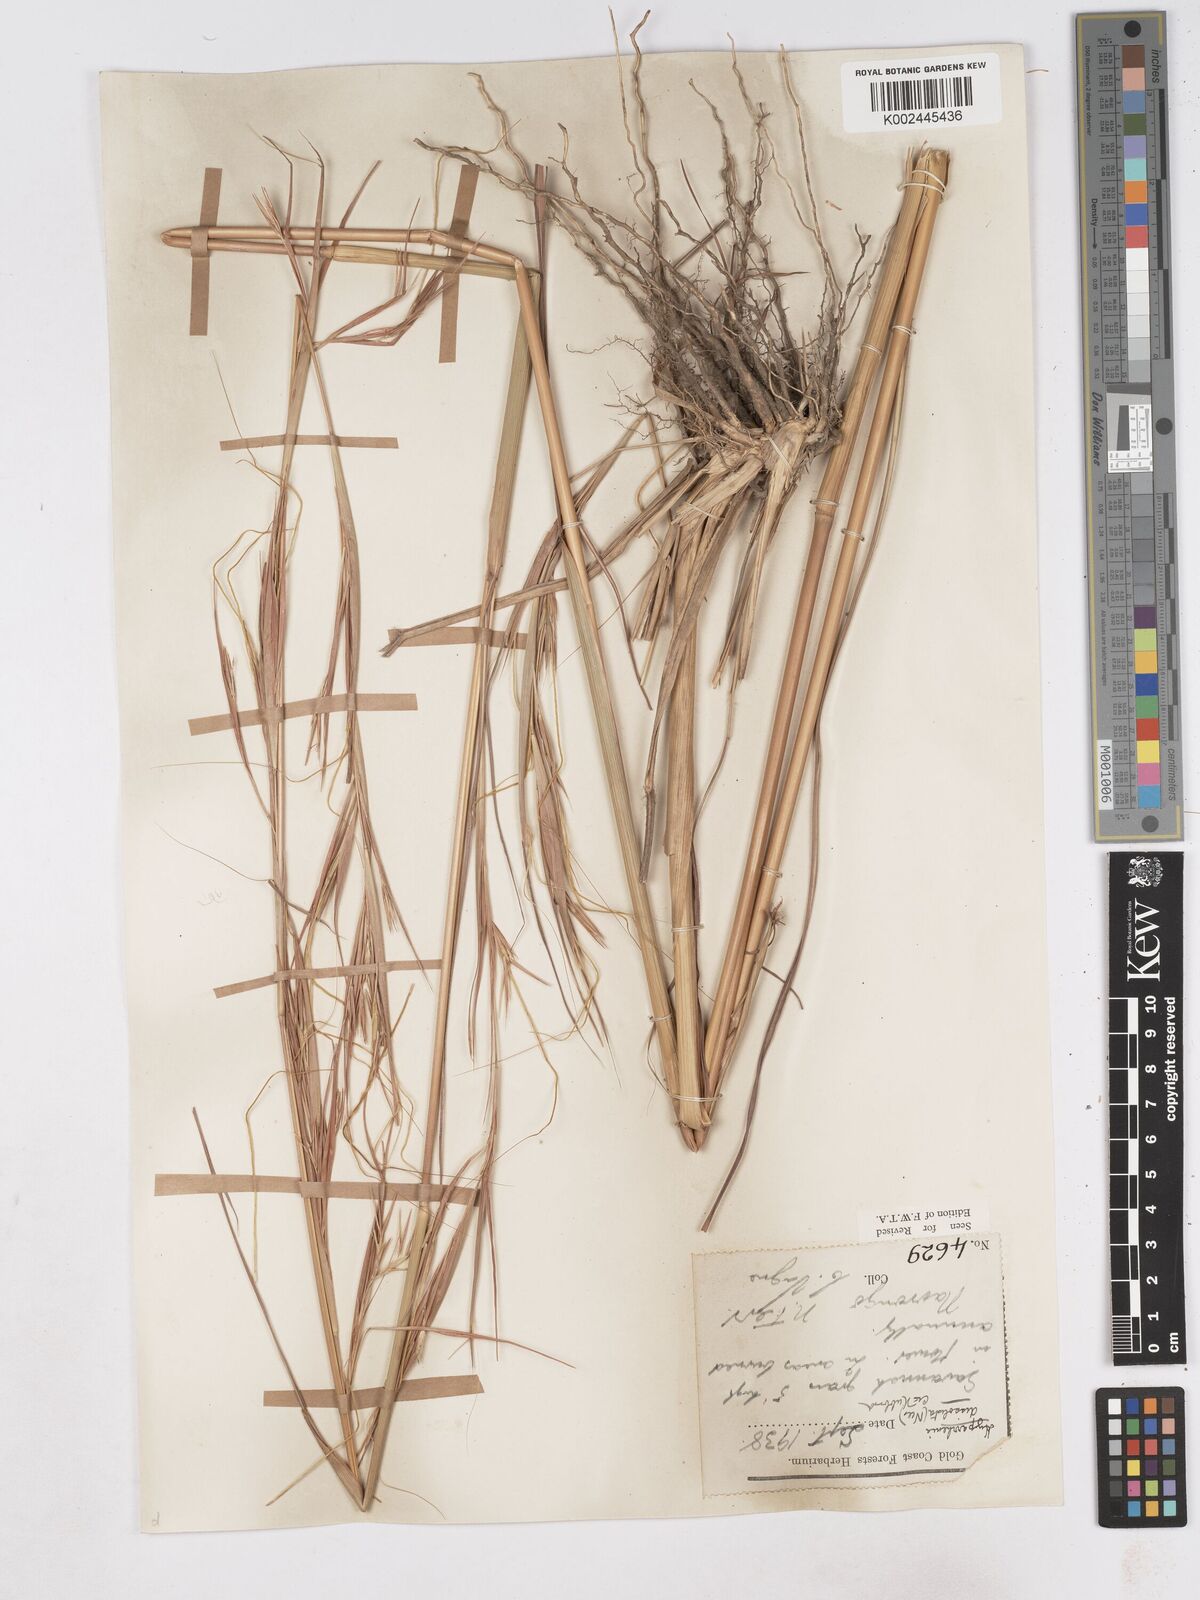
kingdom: Plantae
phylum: Tracheophyta
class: Liliopsida
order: Poales
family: Poaceae
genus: Hyperthelia
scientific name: Hyperthelia dissoluta
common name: Yellow thatching grass
